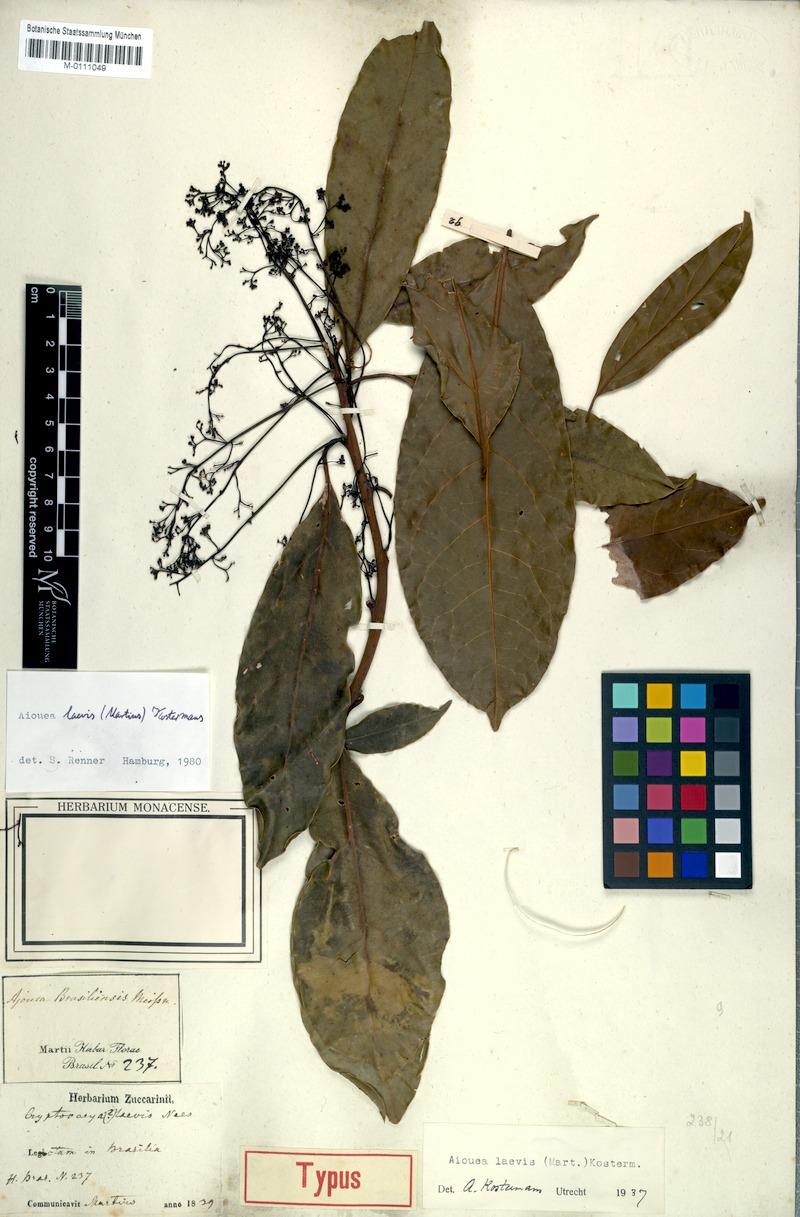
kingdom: Plantae
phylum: Tracheophyta
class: Magnoliopsida
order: Laurales
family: Lauraceae
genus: Aiouea
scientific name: Aiouea laevis
